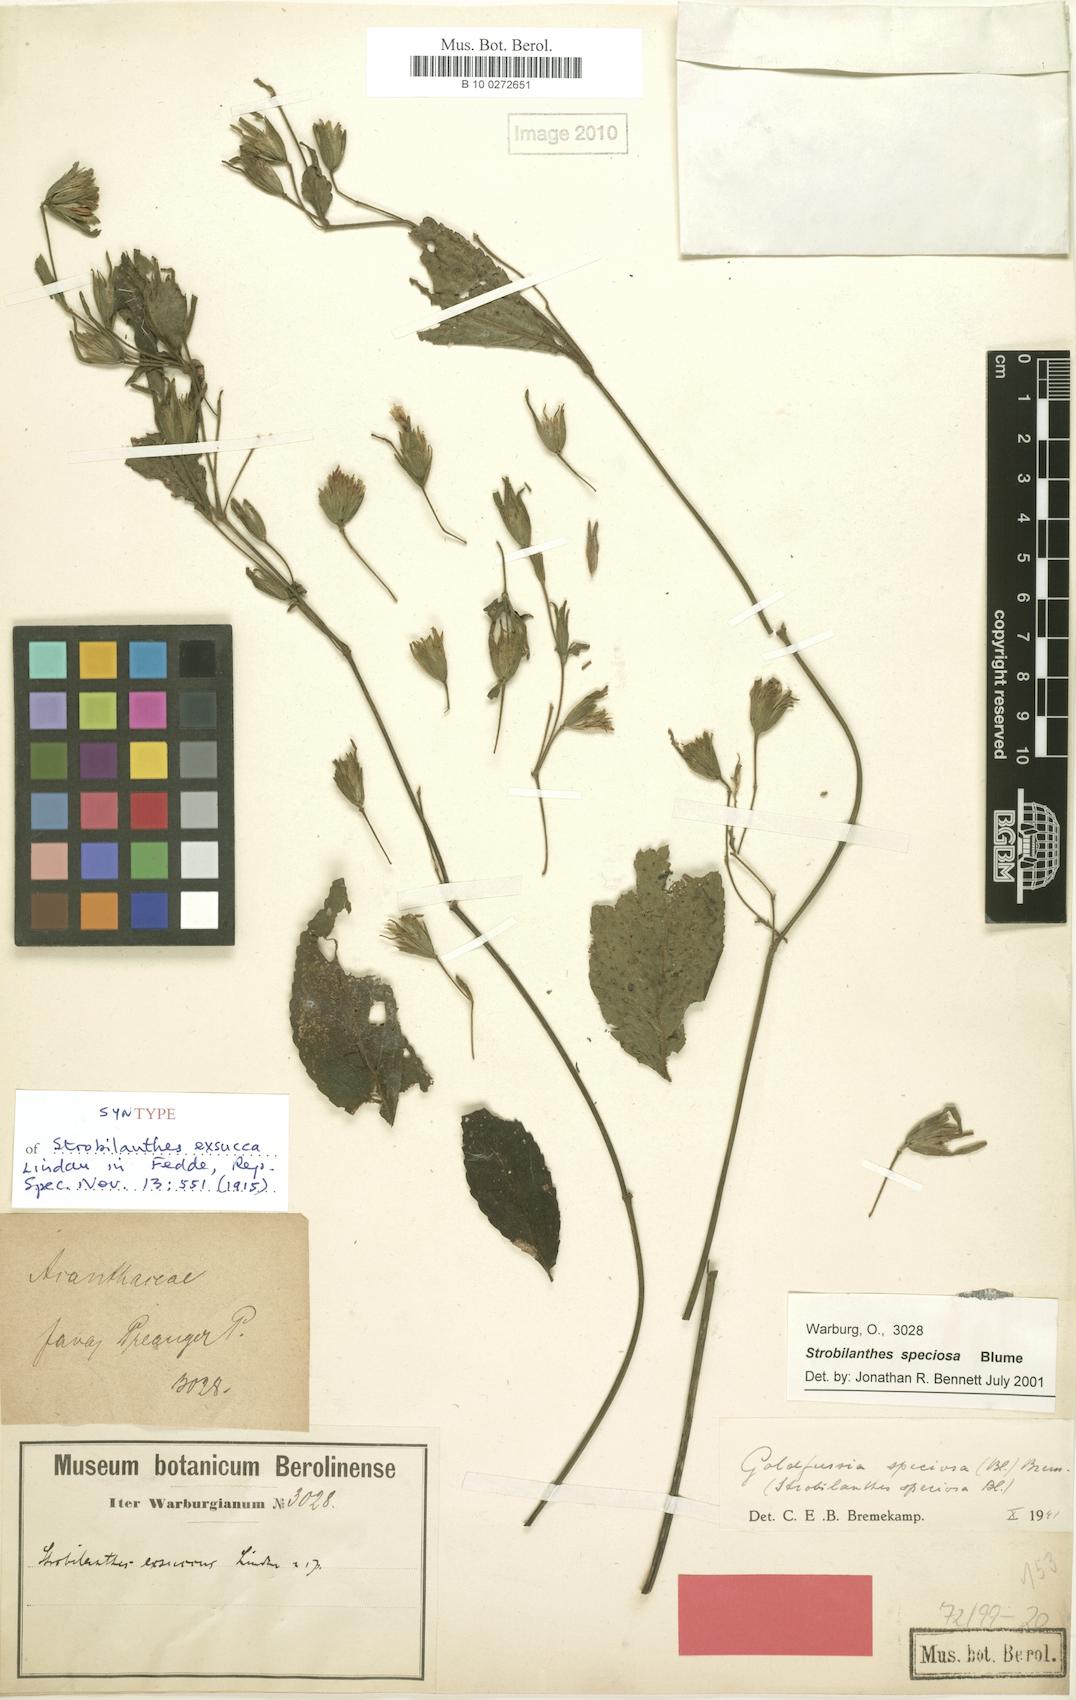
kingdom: Plantae
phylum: Tracheophyta
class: Magnoliopsida
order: Lamiales
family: Acanthaceae
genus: Strobilanthes
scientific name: Strobilanthes speciosa
